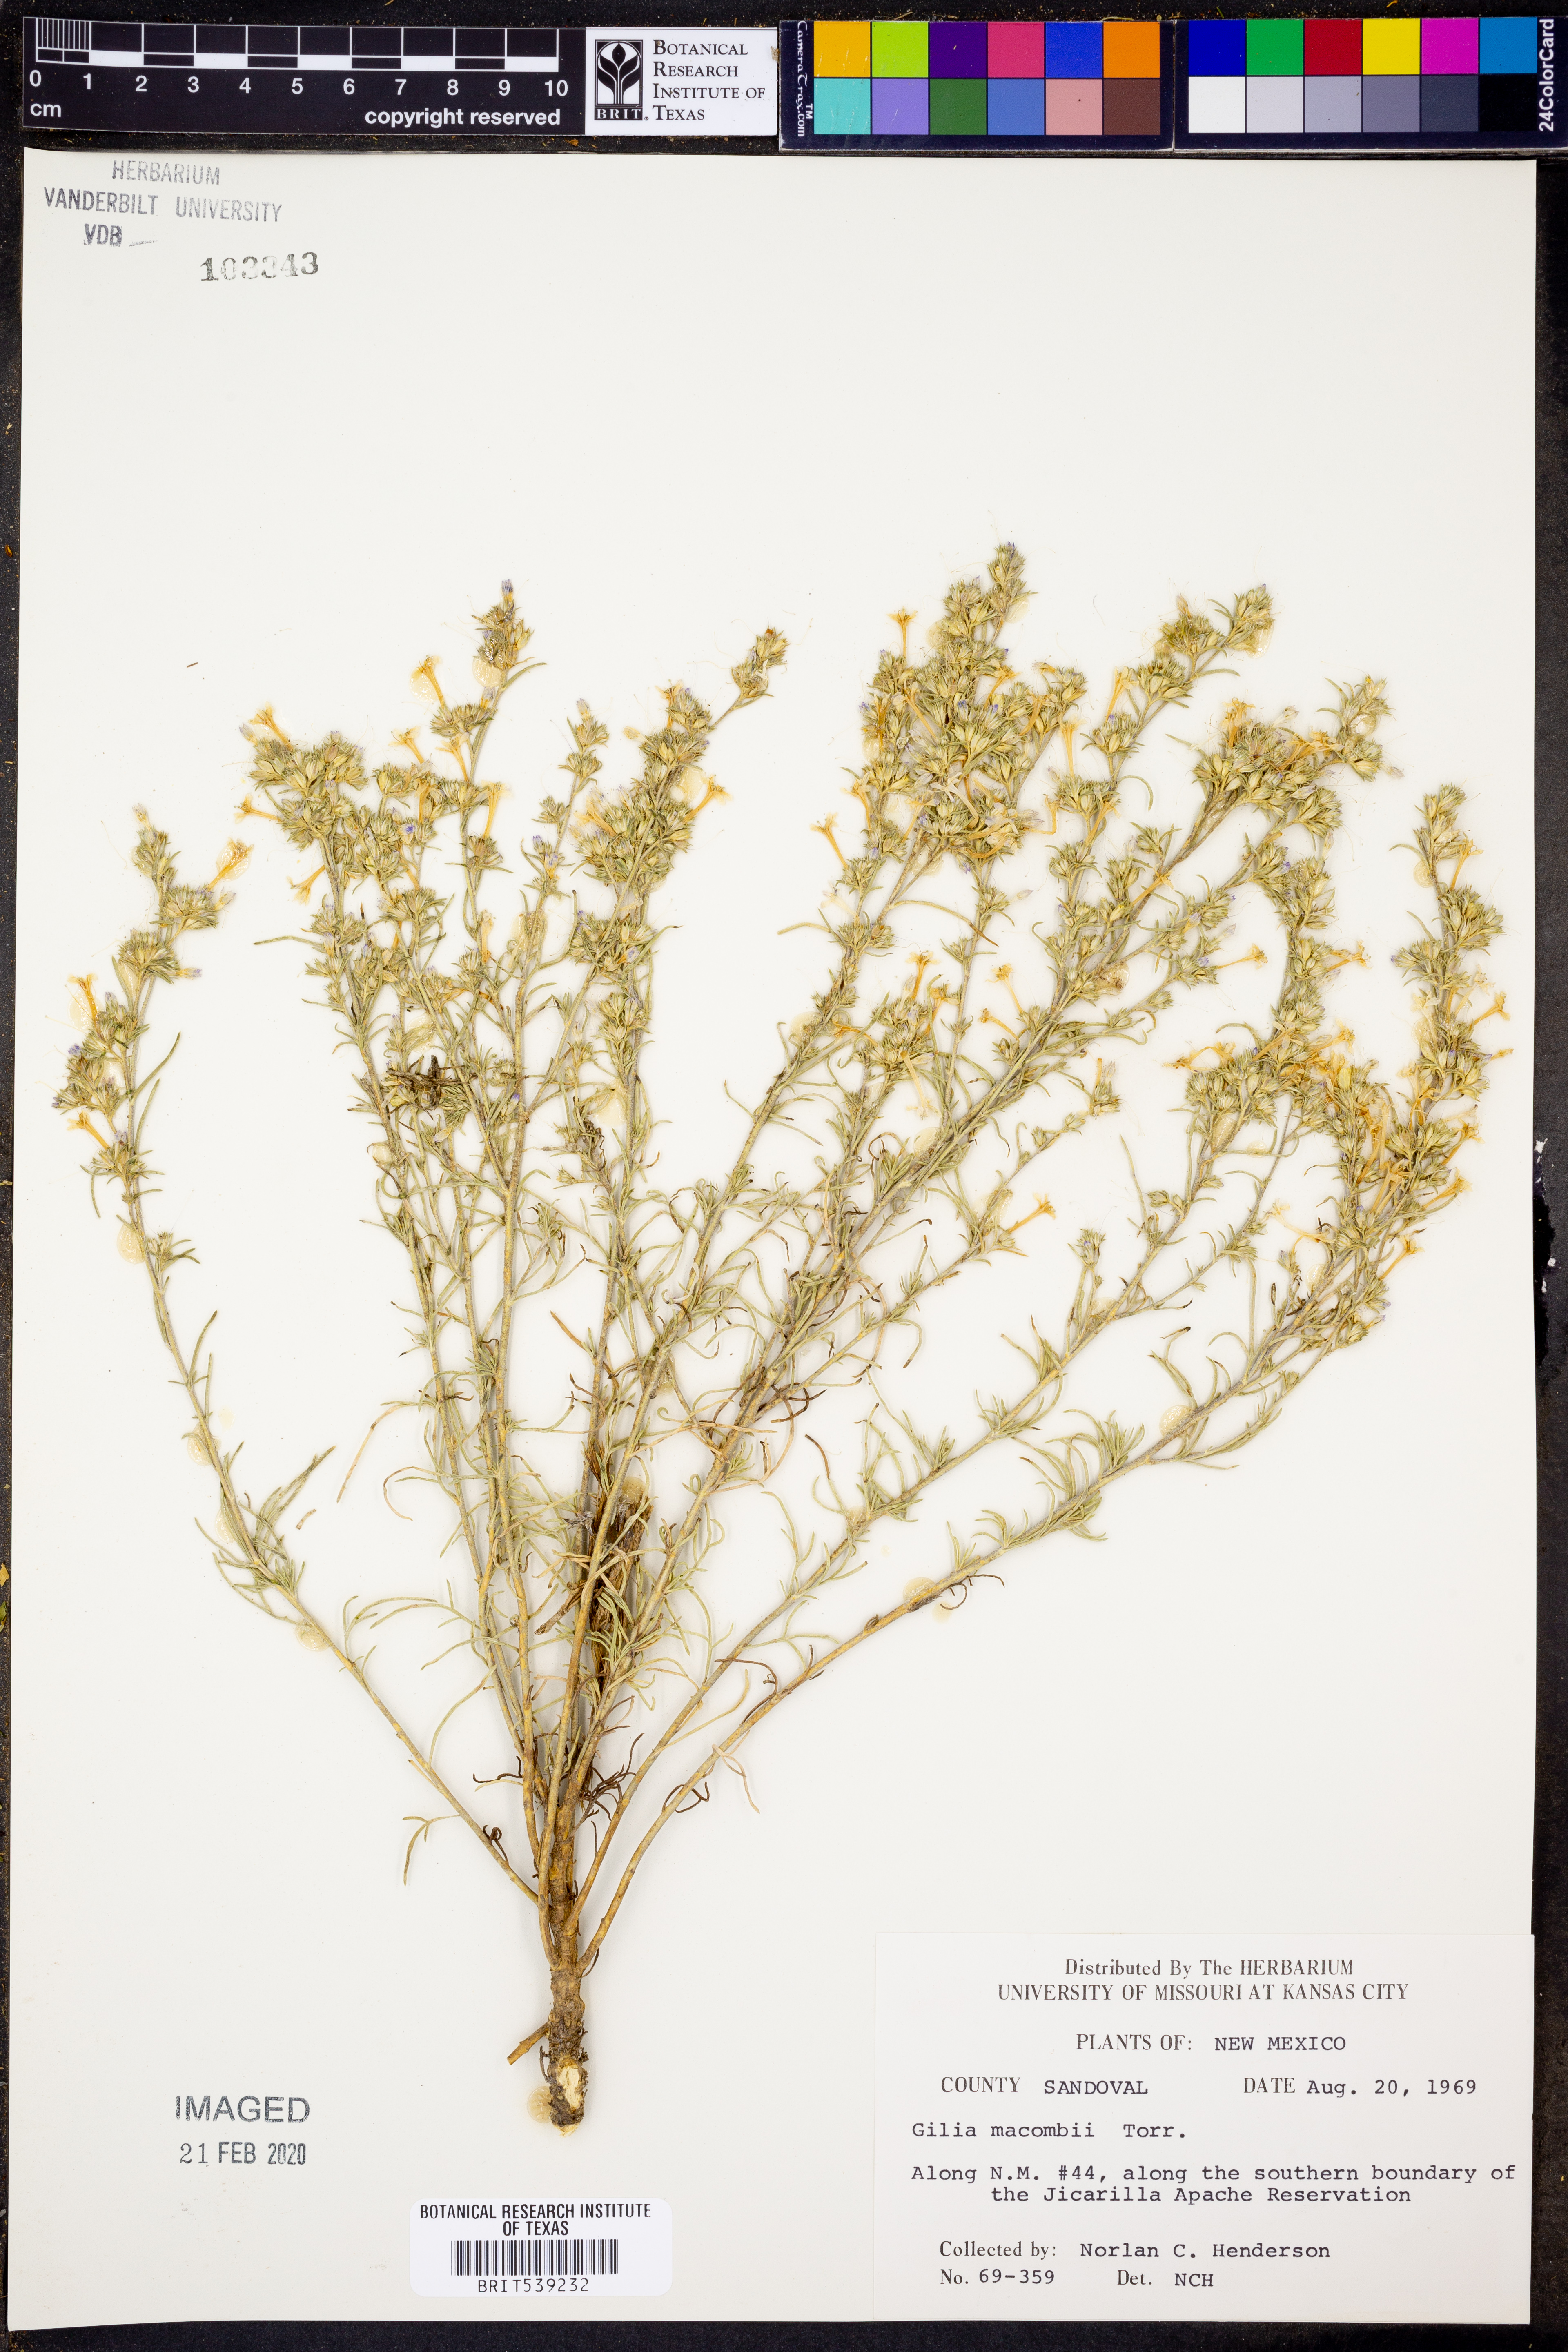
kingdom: Plantae
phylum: Tracheophyta
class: Magnoliopsida
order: Ericales
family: Polemoniaceae
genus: Ipomopsis
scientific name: Ipomopsis macombii
